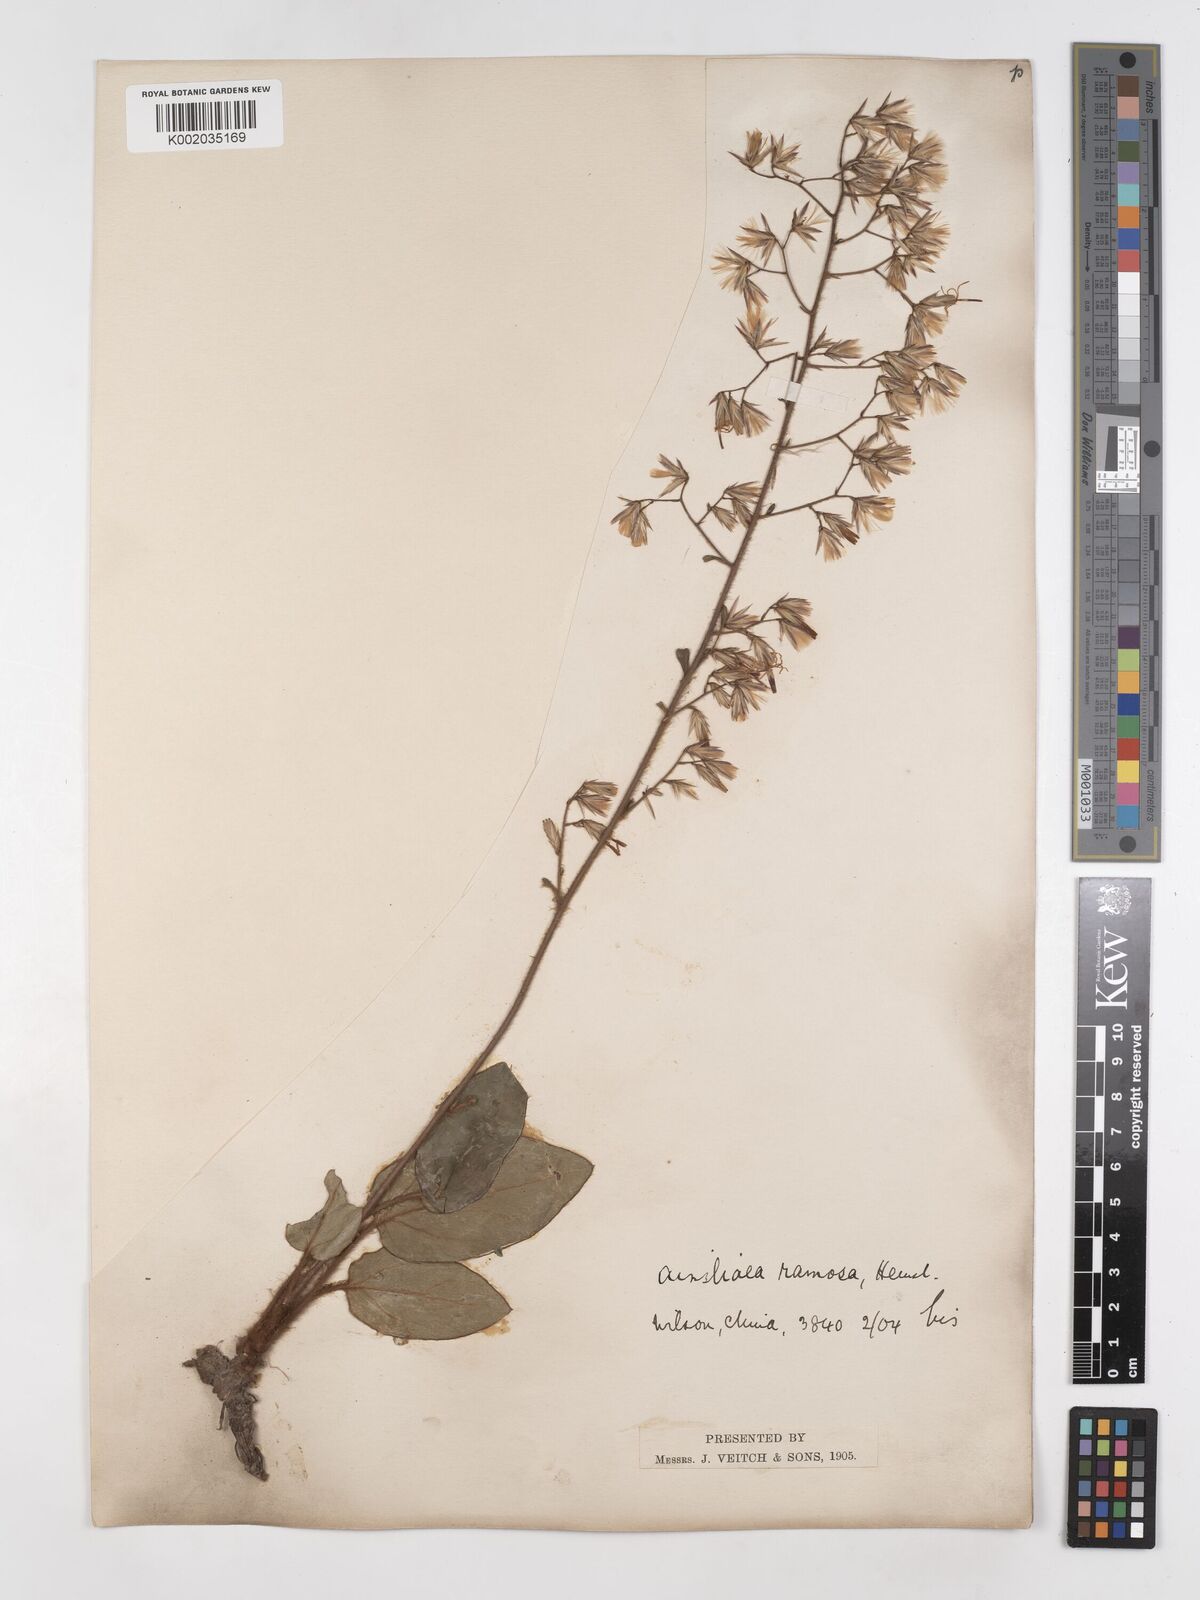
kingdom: Plantae
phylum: Tracheophyta
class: Magnoliopsida
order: Asterales
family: Asteraceae
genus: Ainsliaea
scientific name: Ainsliaea ramosa
